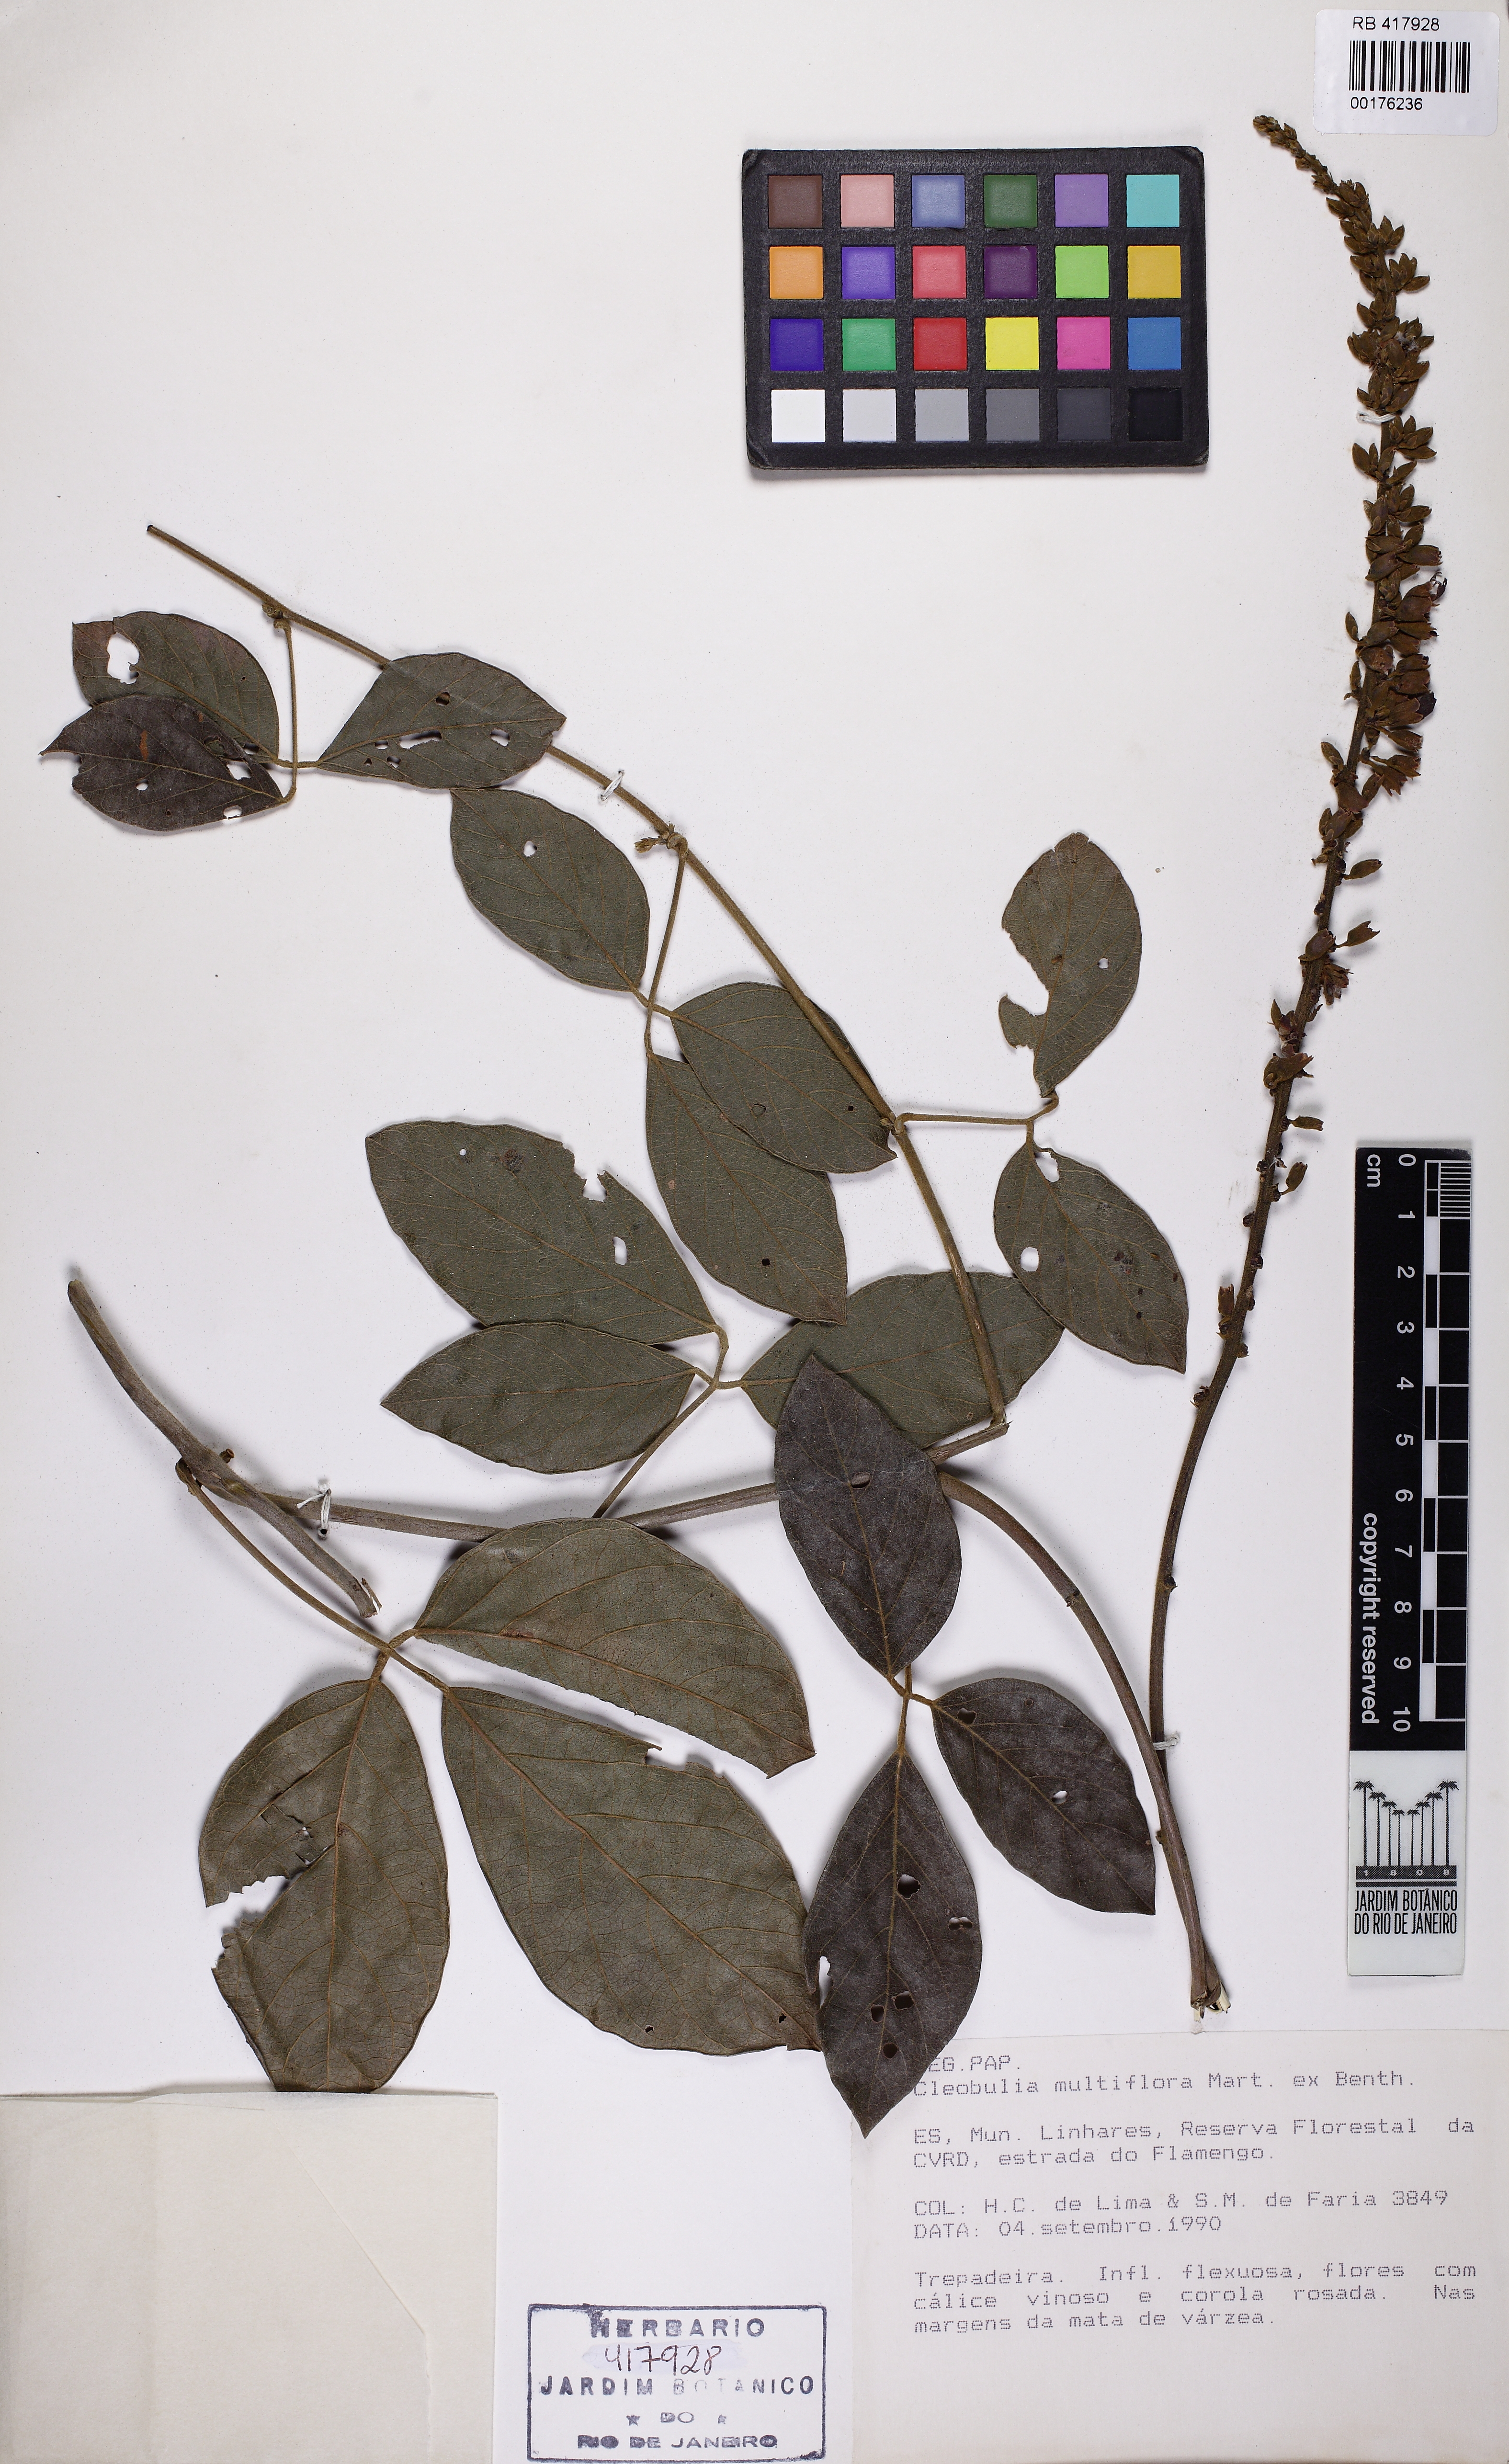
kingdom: Plantae
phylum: Tracheophyta
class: Magnoliopsida
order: Fabales
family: Fabaceae
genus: Cleobulia
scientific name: Cleobulia coccinea
